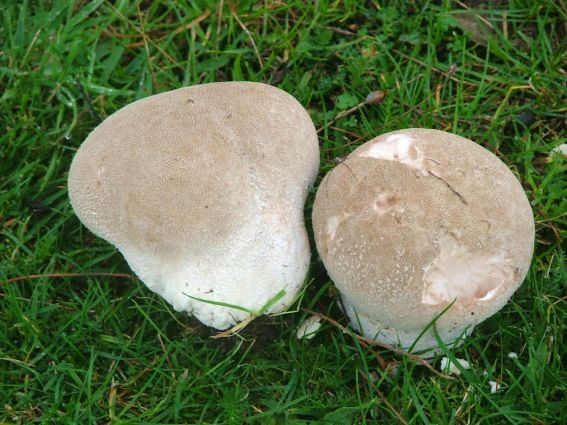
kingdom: Fungi
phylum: Basidiomycota
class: Agaricomycetes
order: Agaricales
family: Lycoperdaceae
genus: Bovistella
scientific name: Bovistella utriformis
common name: skællet støvbold
